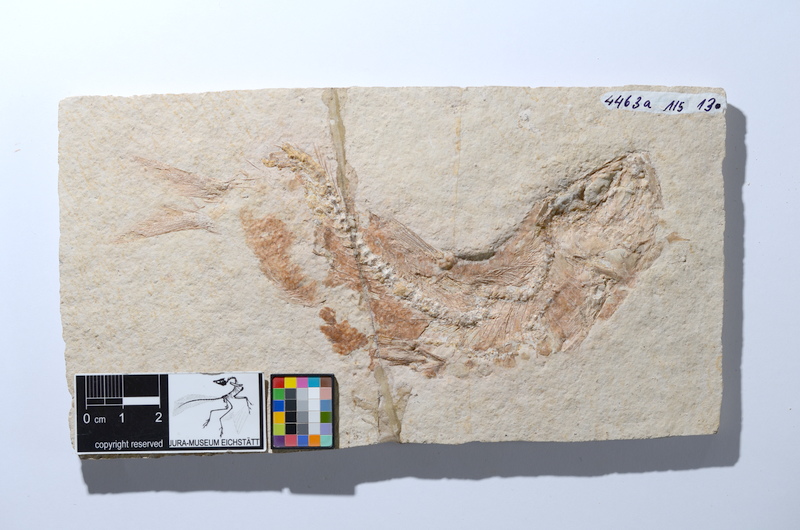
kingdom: Animalia
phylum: Chordata
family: Ascalaboidae
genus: Tharsis
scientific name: Tharsis dubius
